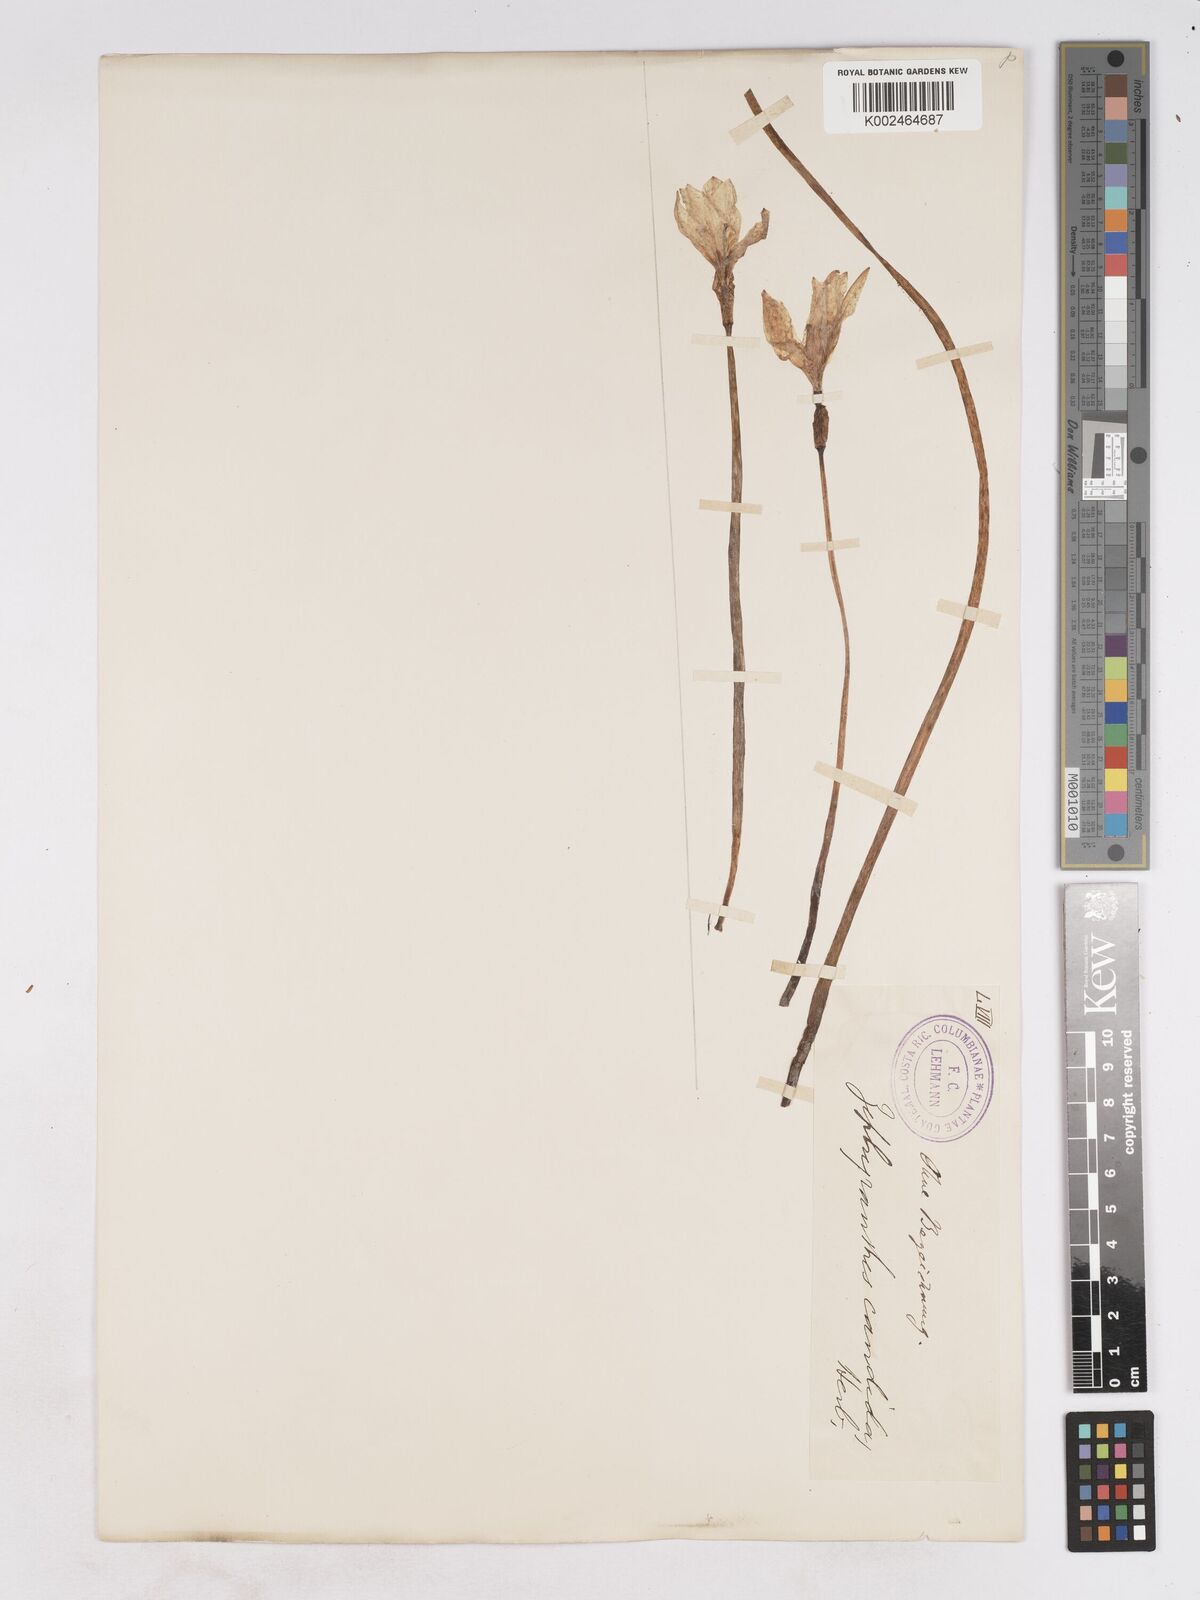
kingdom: Plantae
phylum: Tracheophyta
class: Liliopsida
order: Asparagales
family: Amaryllidaceae
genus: Zephyranthes
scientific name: Zephyranthes candida
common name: Autumn zephyrlily
